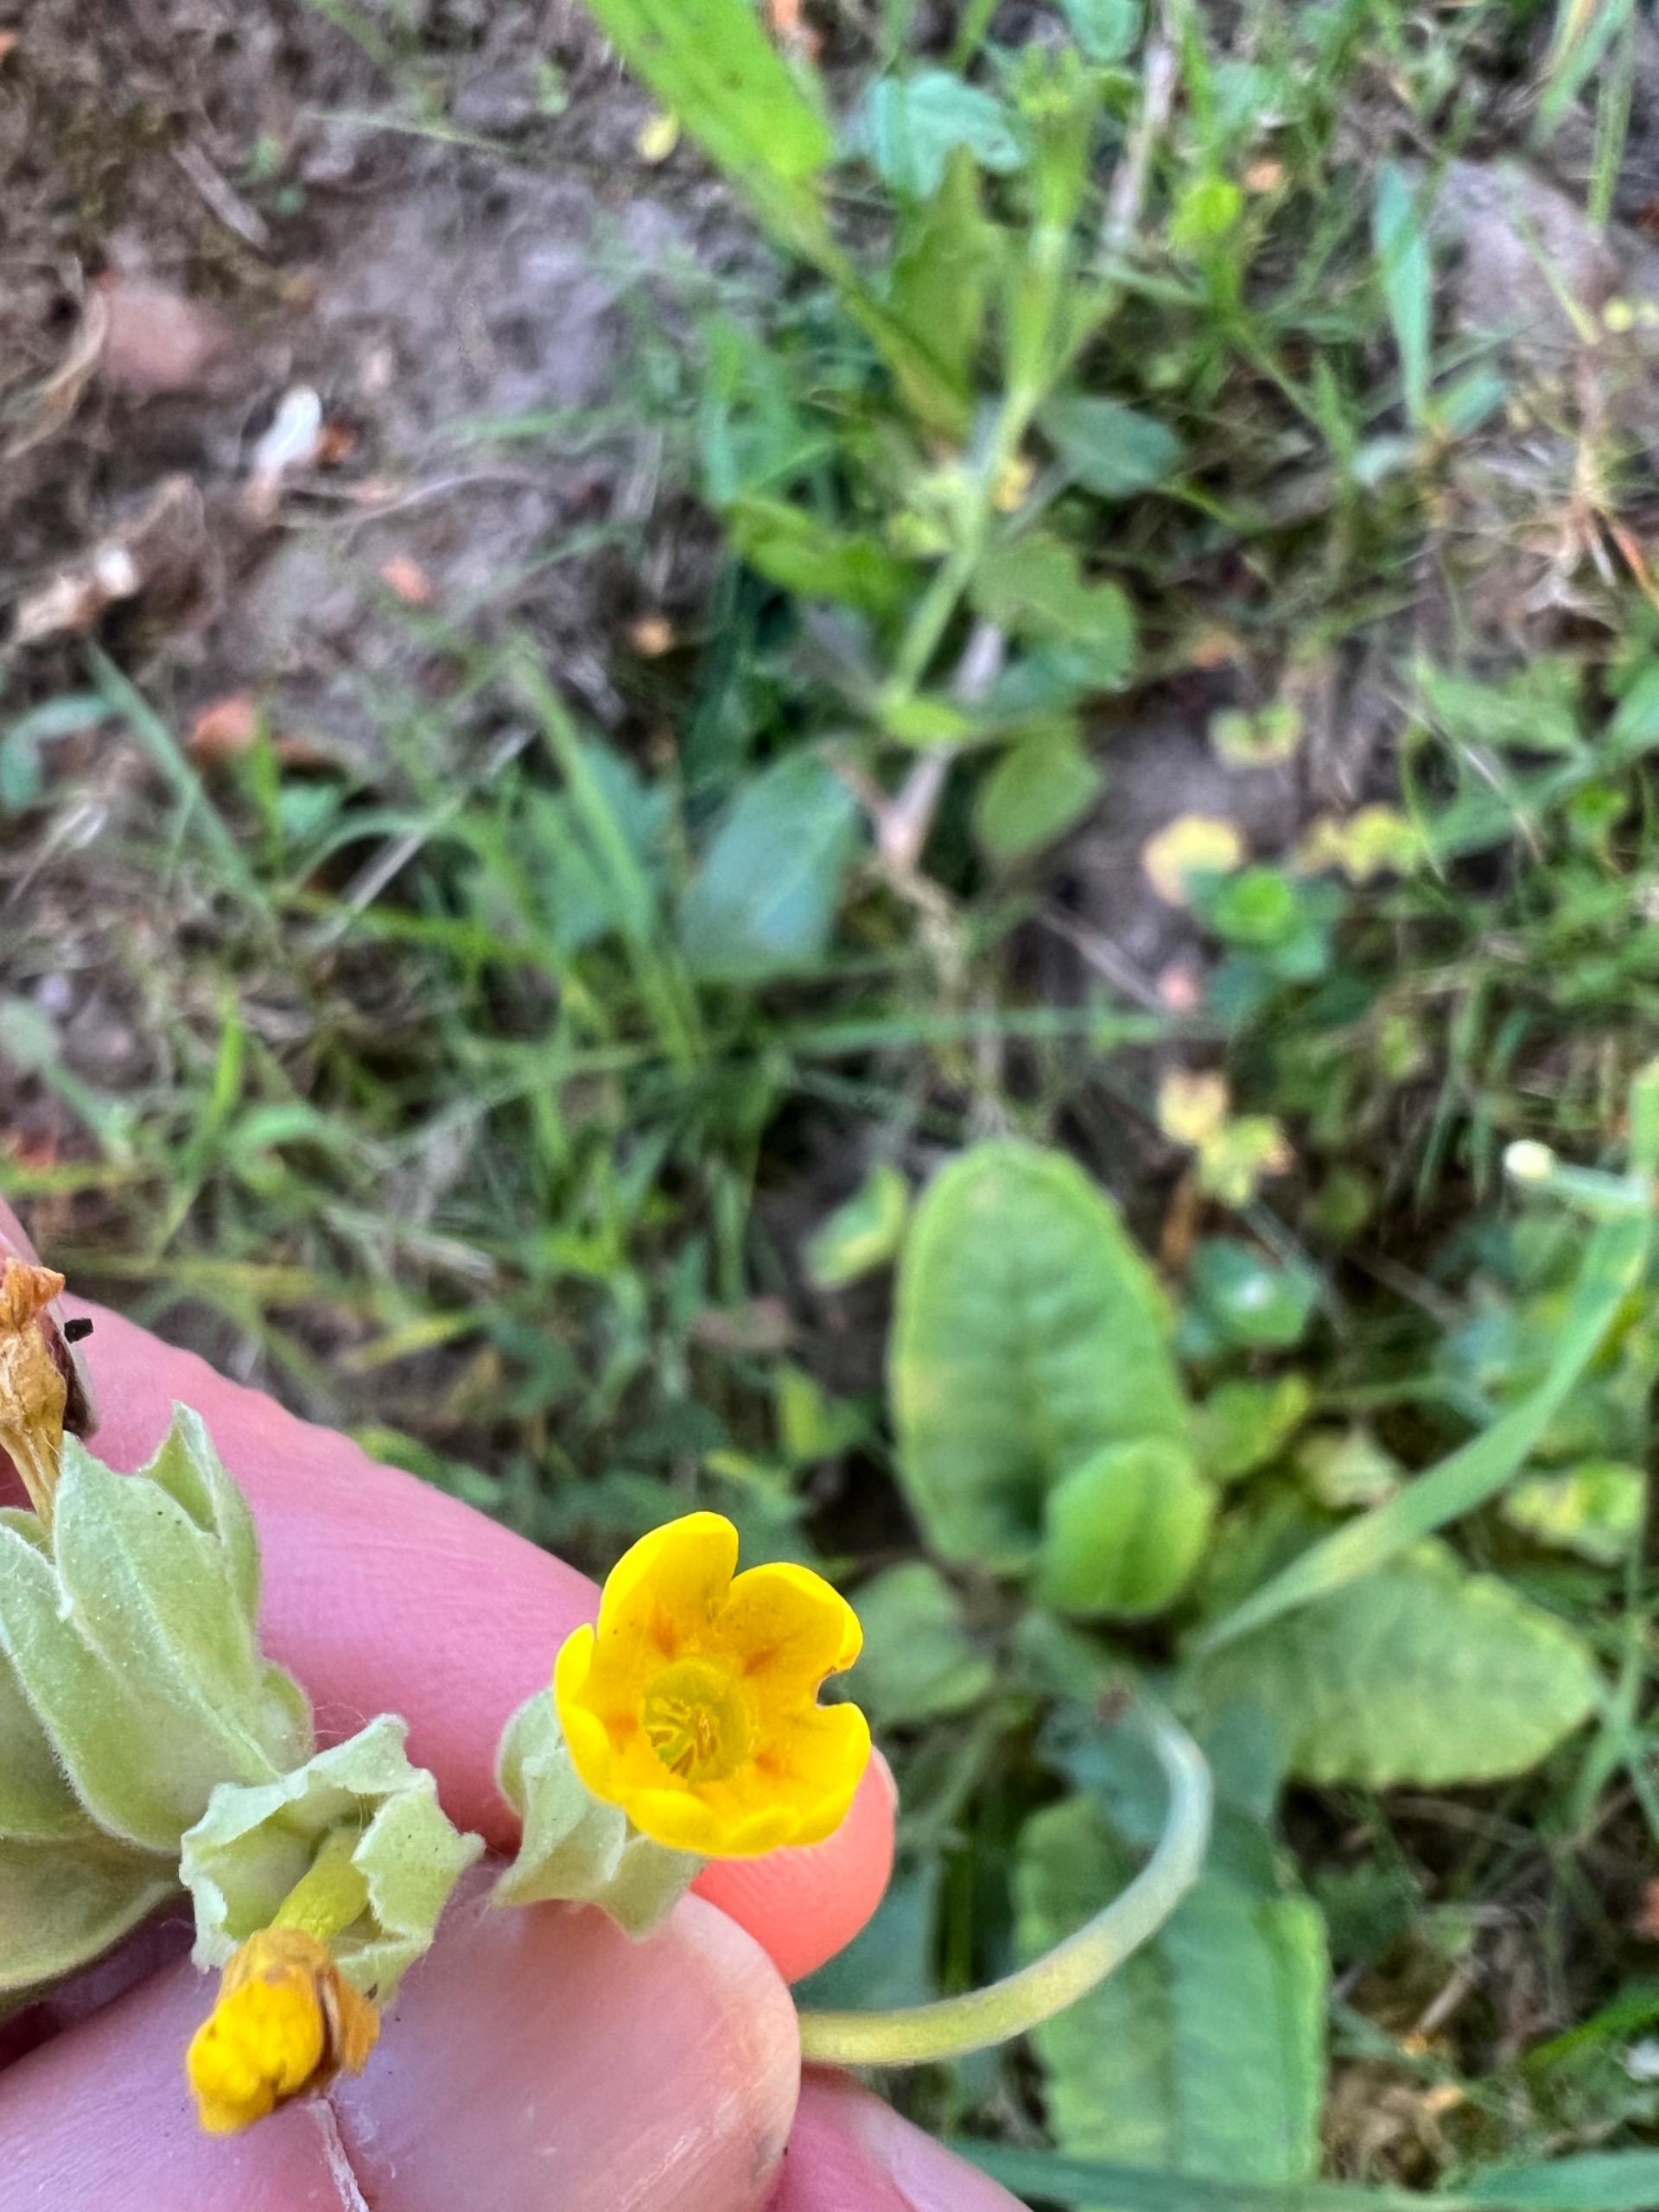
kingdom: Plantae
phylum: Tracheophyta
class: Magnoliopsida
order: Ericales
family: Primulaceae
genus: Primula
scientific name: Primula veris
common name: Hulkravet kodriver
